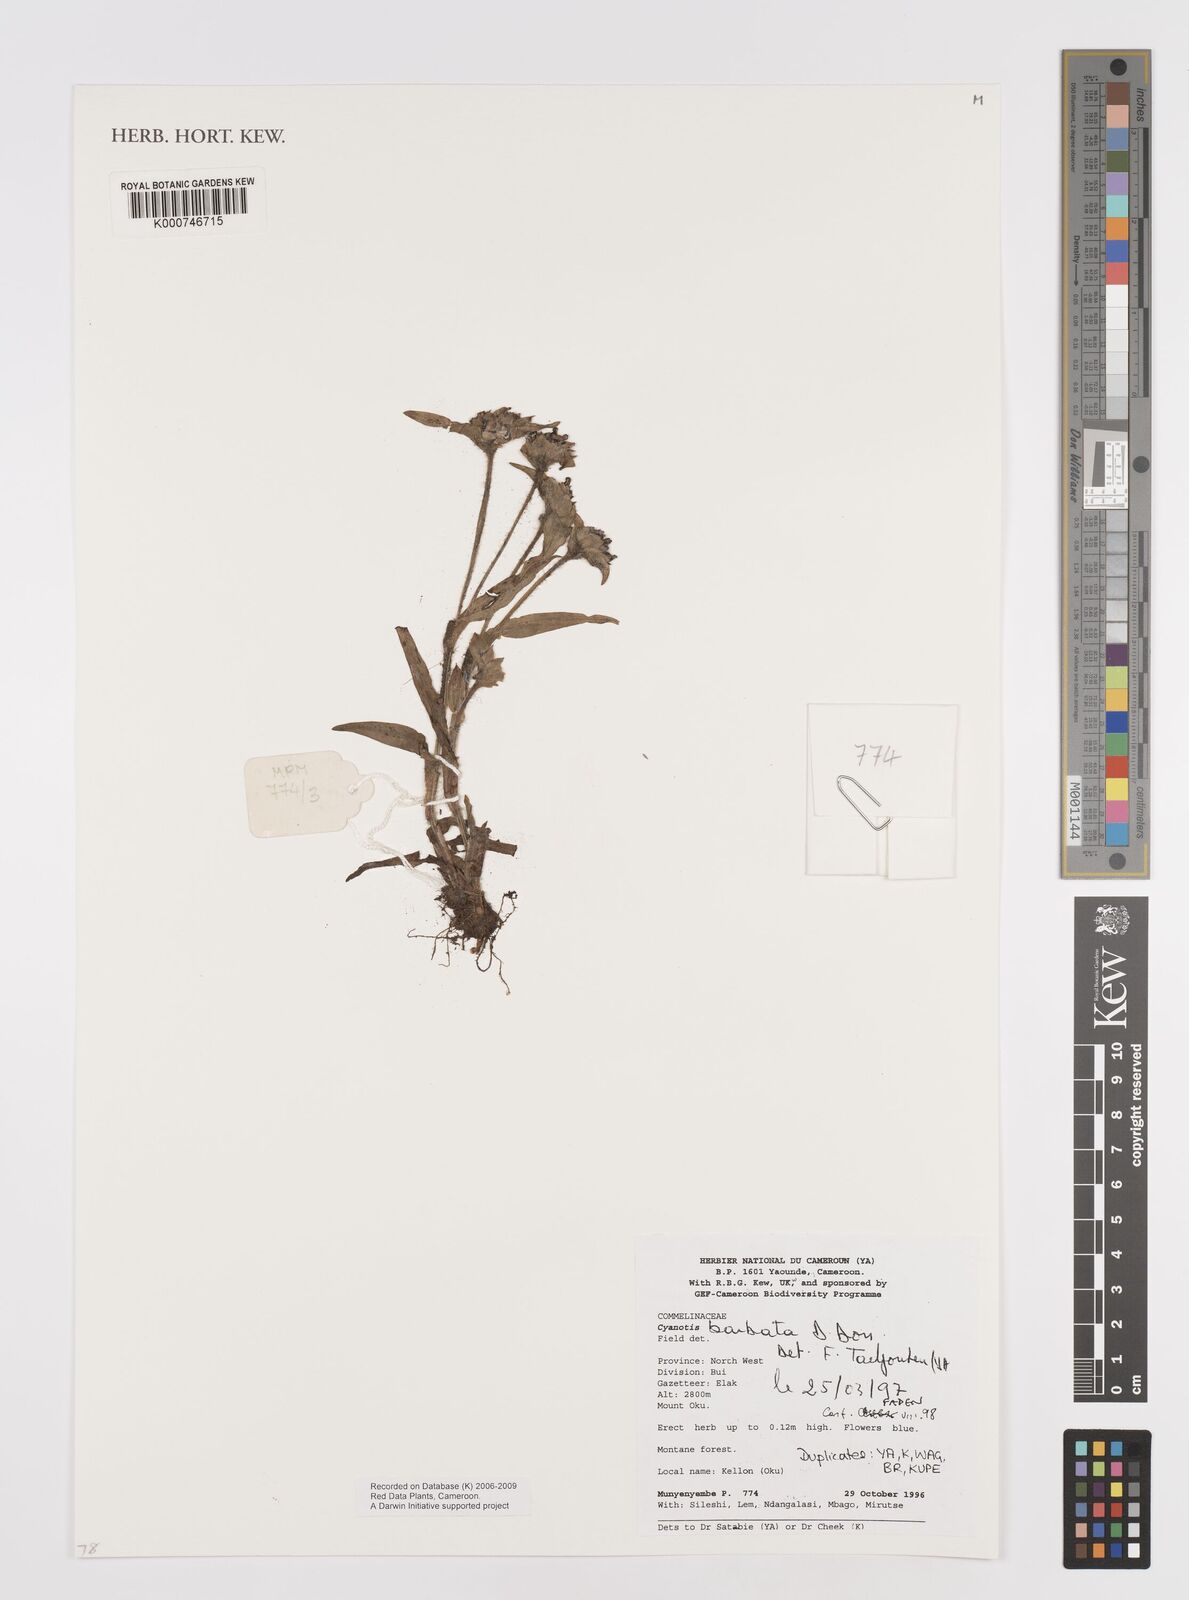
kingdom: Plantae
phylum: Tracheophyta
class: Liliopsida
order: Commelinales
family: Commelinaceae
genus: Cyanotis
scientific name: Cyanotis vaga
